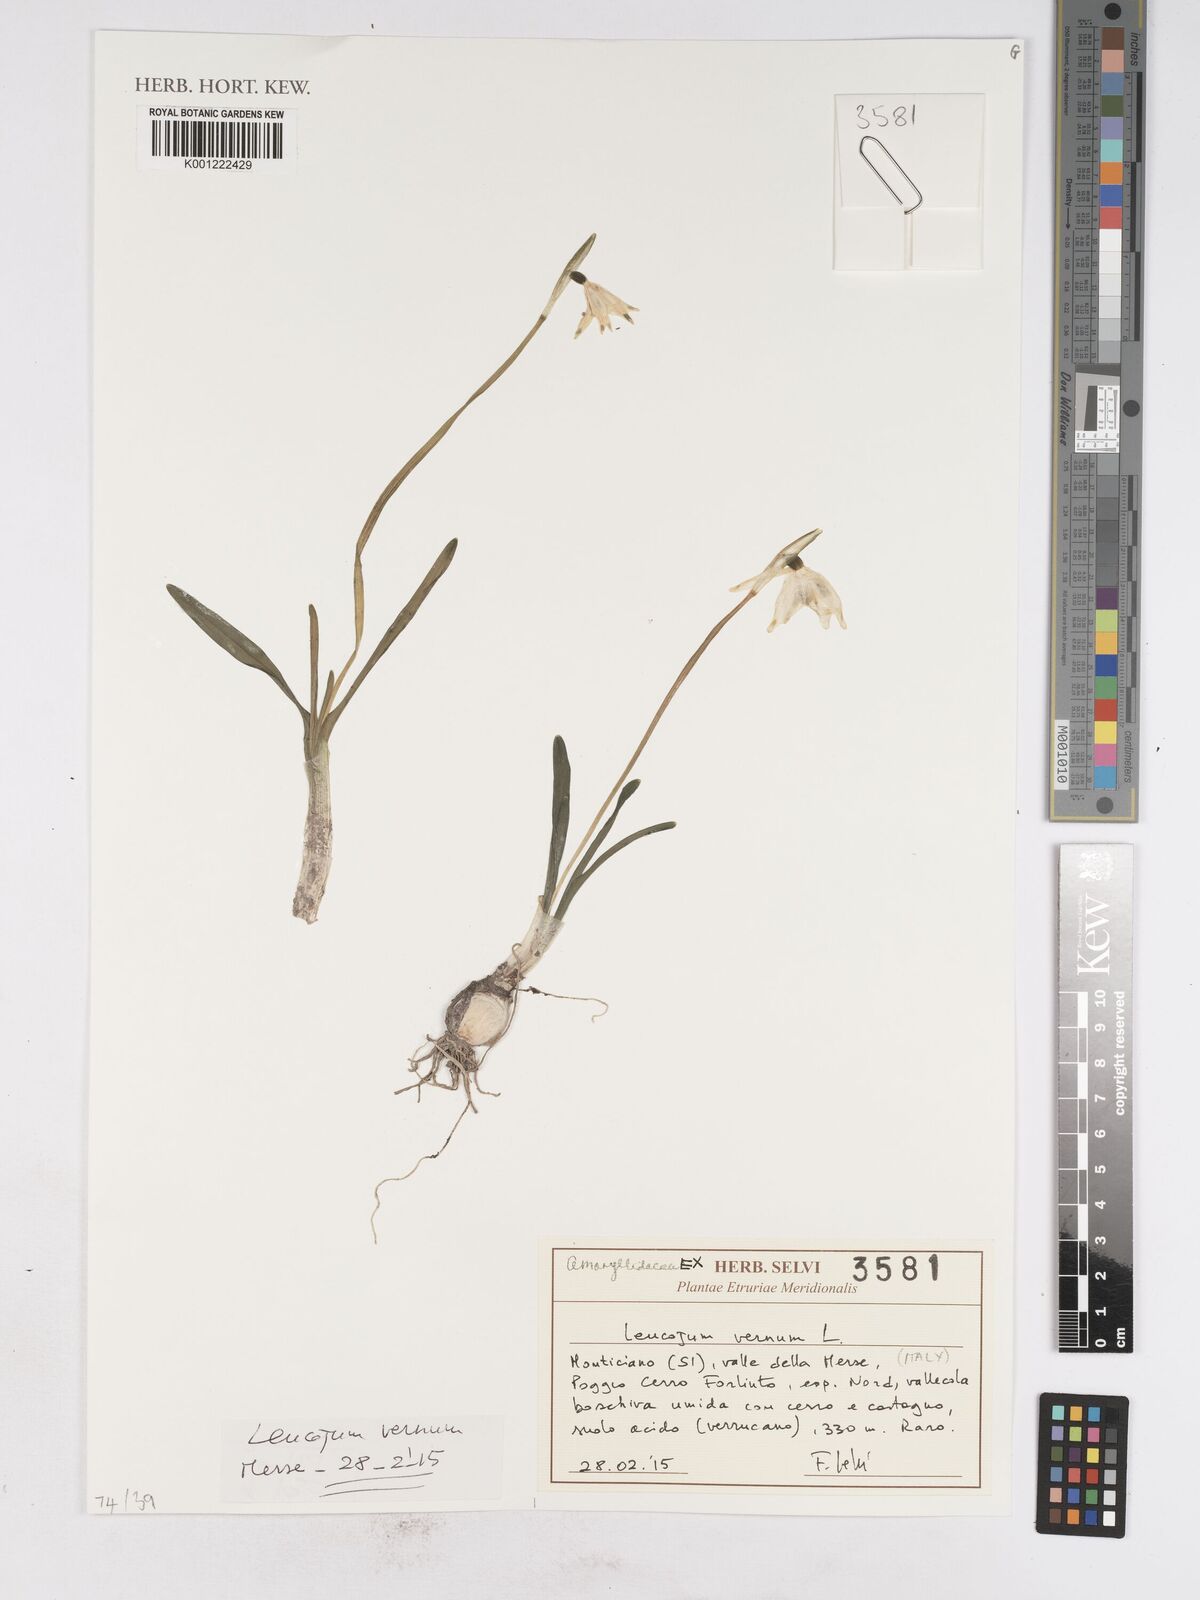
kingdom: Plantae
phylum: Tracheophyta
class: Liliopsida
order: Asparagales
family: Amaryllidaceae
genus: Leucojum
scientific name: Leucojum vernum
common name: Spring snowflake
